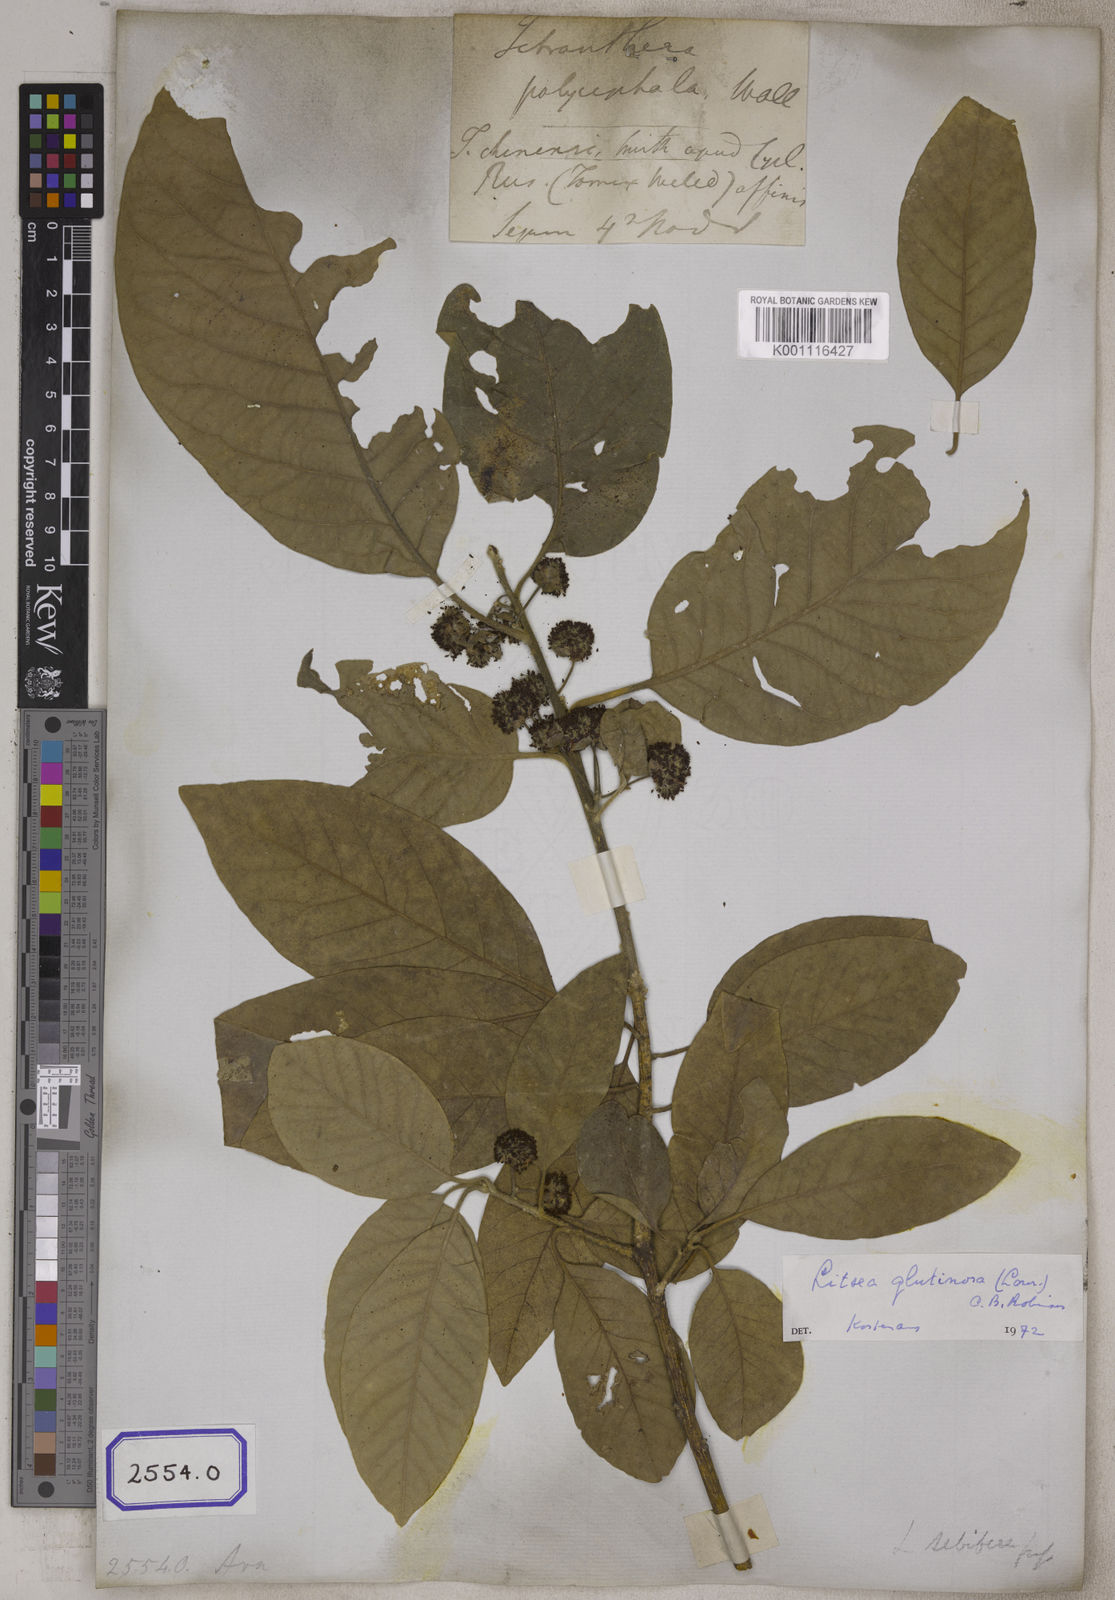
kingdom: Plantae
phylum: Tracheophyta
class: Magnoliopsida
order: Laurales
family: Lauraceae
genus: Litsea
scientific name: Litsea glutinosa
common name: Indian-laurel
